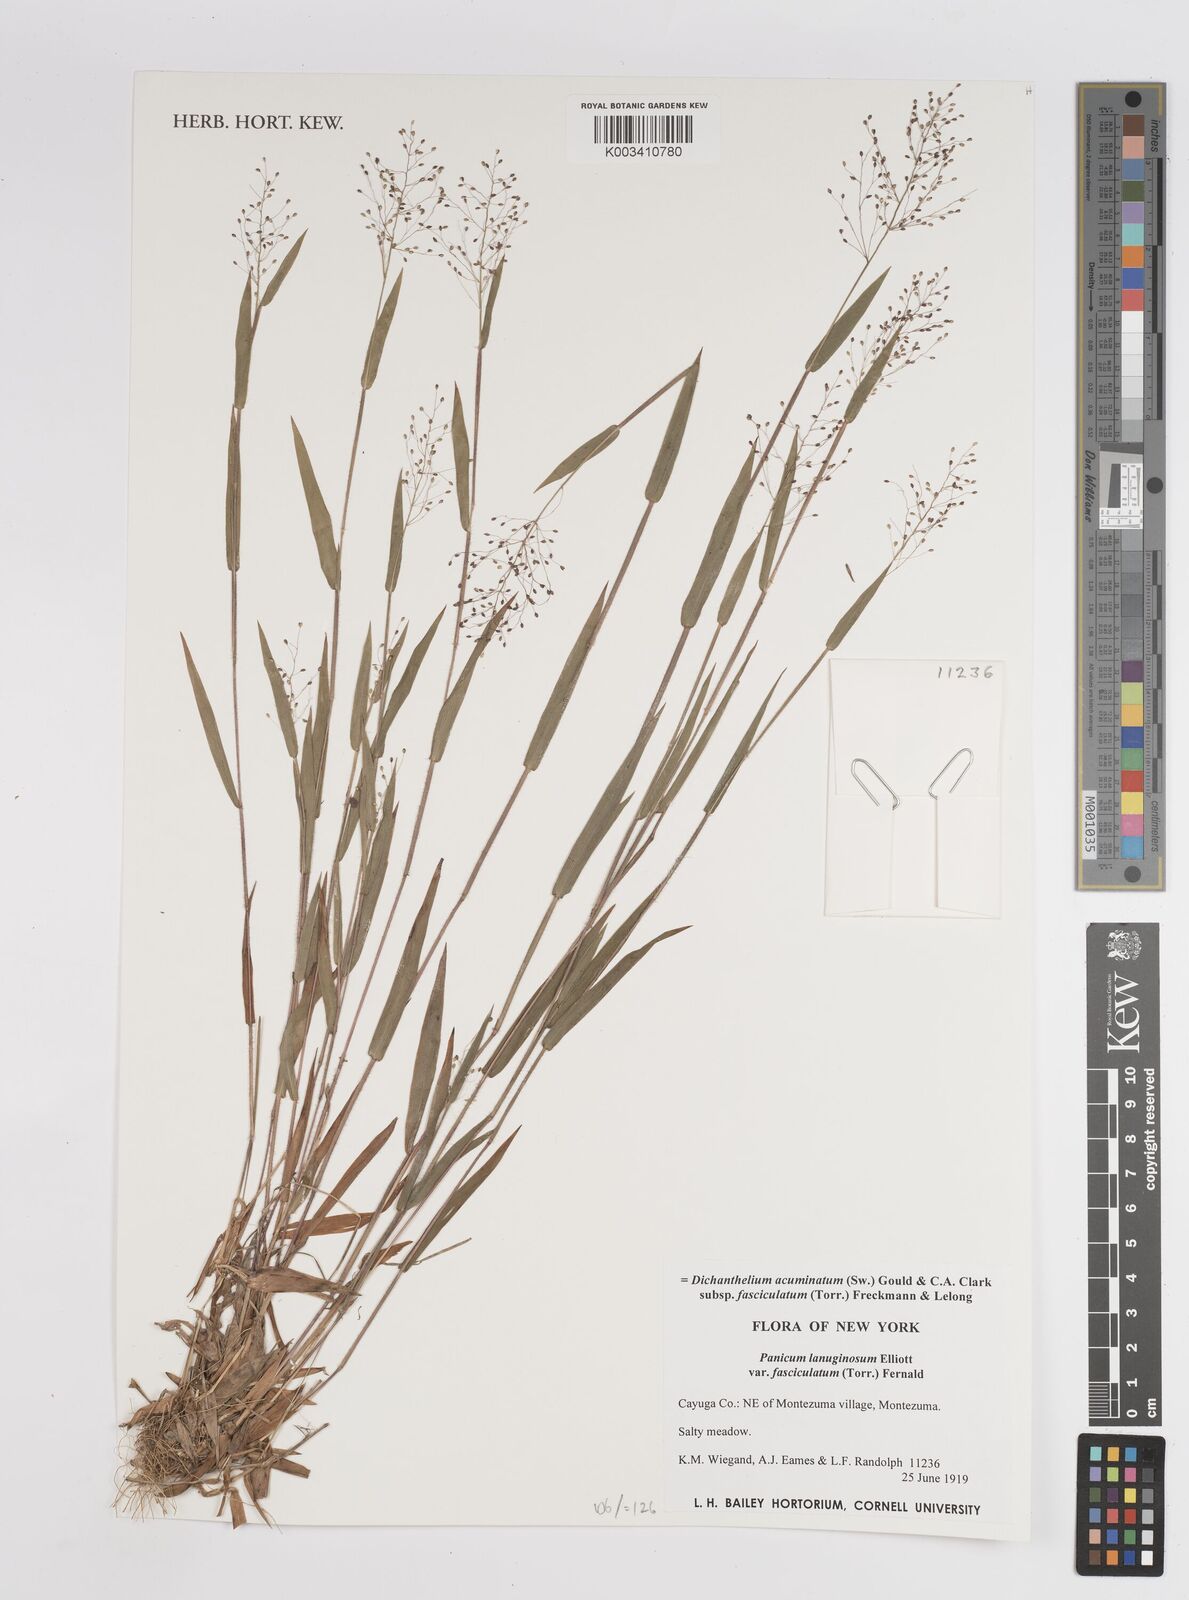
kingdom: Plantae
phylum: Tracheophyta
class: Liliopsida
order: Poales
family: Poaceae
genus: Dichanthelium
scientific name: Dichanthelium acuminatum
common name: Hairy panic grass
